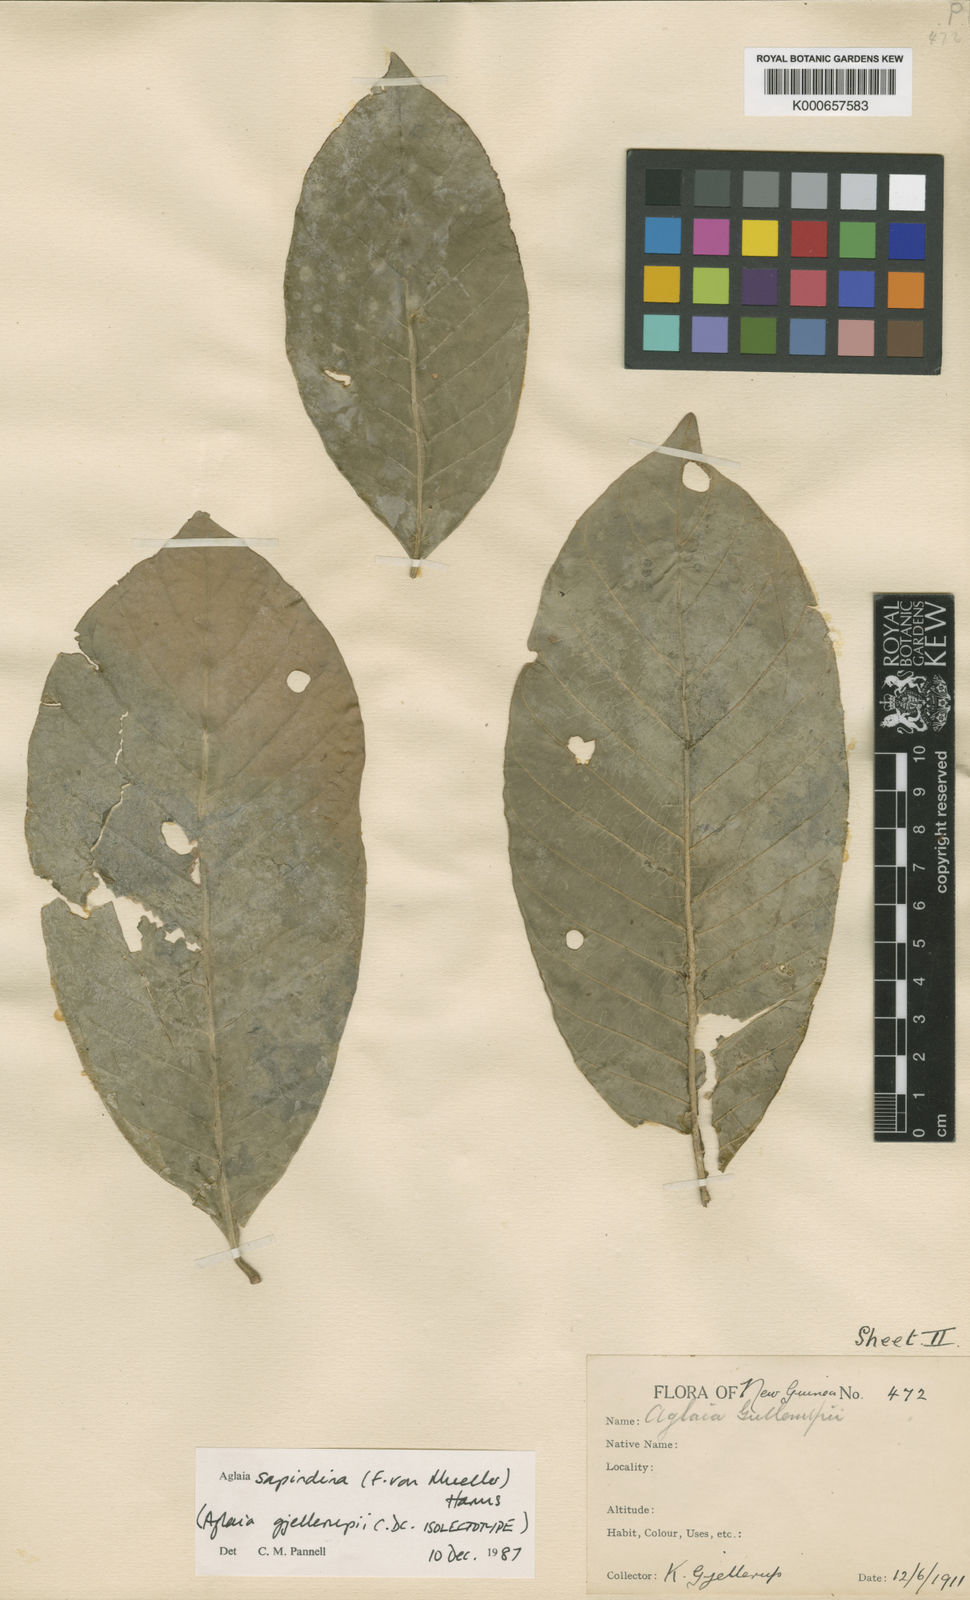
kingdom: Plantae
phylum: Tracheophyta
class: Magnoliopsida
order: Sapindales
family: Meliaceae
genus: Aglaia
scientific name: Aglaia sapindina
